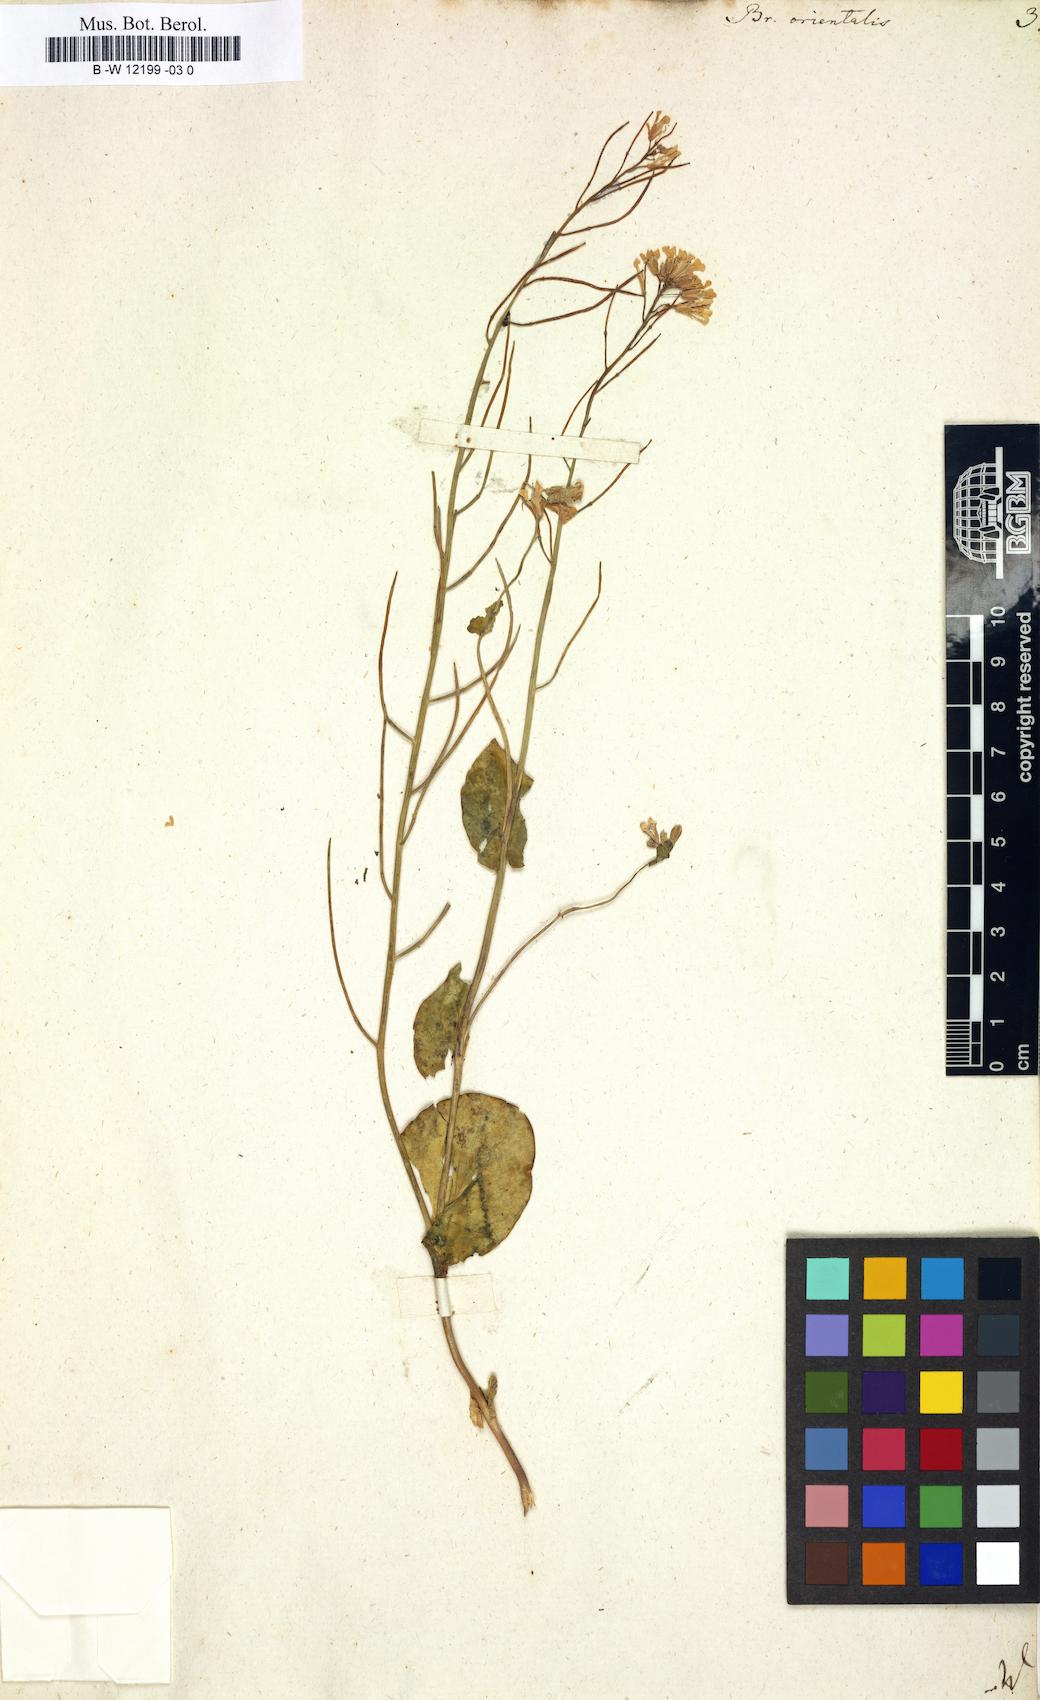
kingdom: Plantae
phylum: Tracheophyta
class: Magnoliopsida
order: Brassicales
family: Brassicaceae
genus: Conringia
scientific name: Conringia orientalis
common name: Hare's ear mustard
